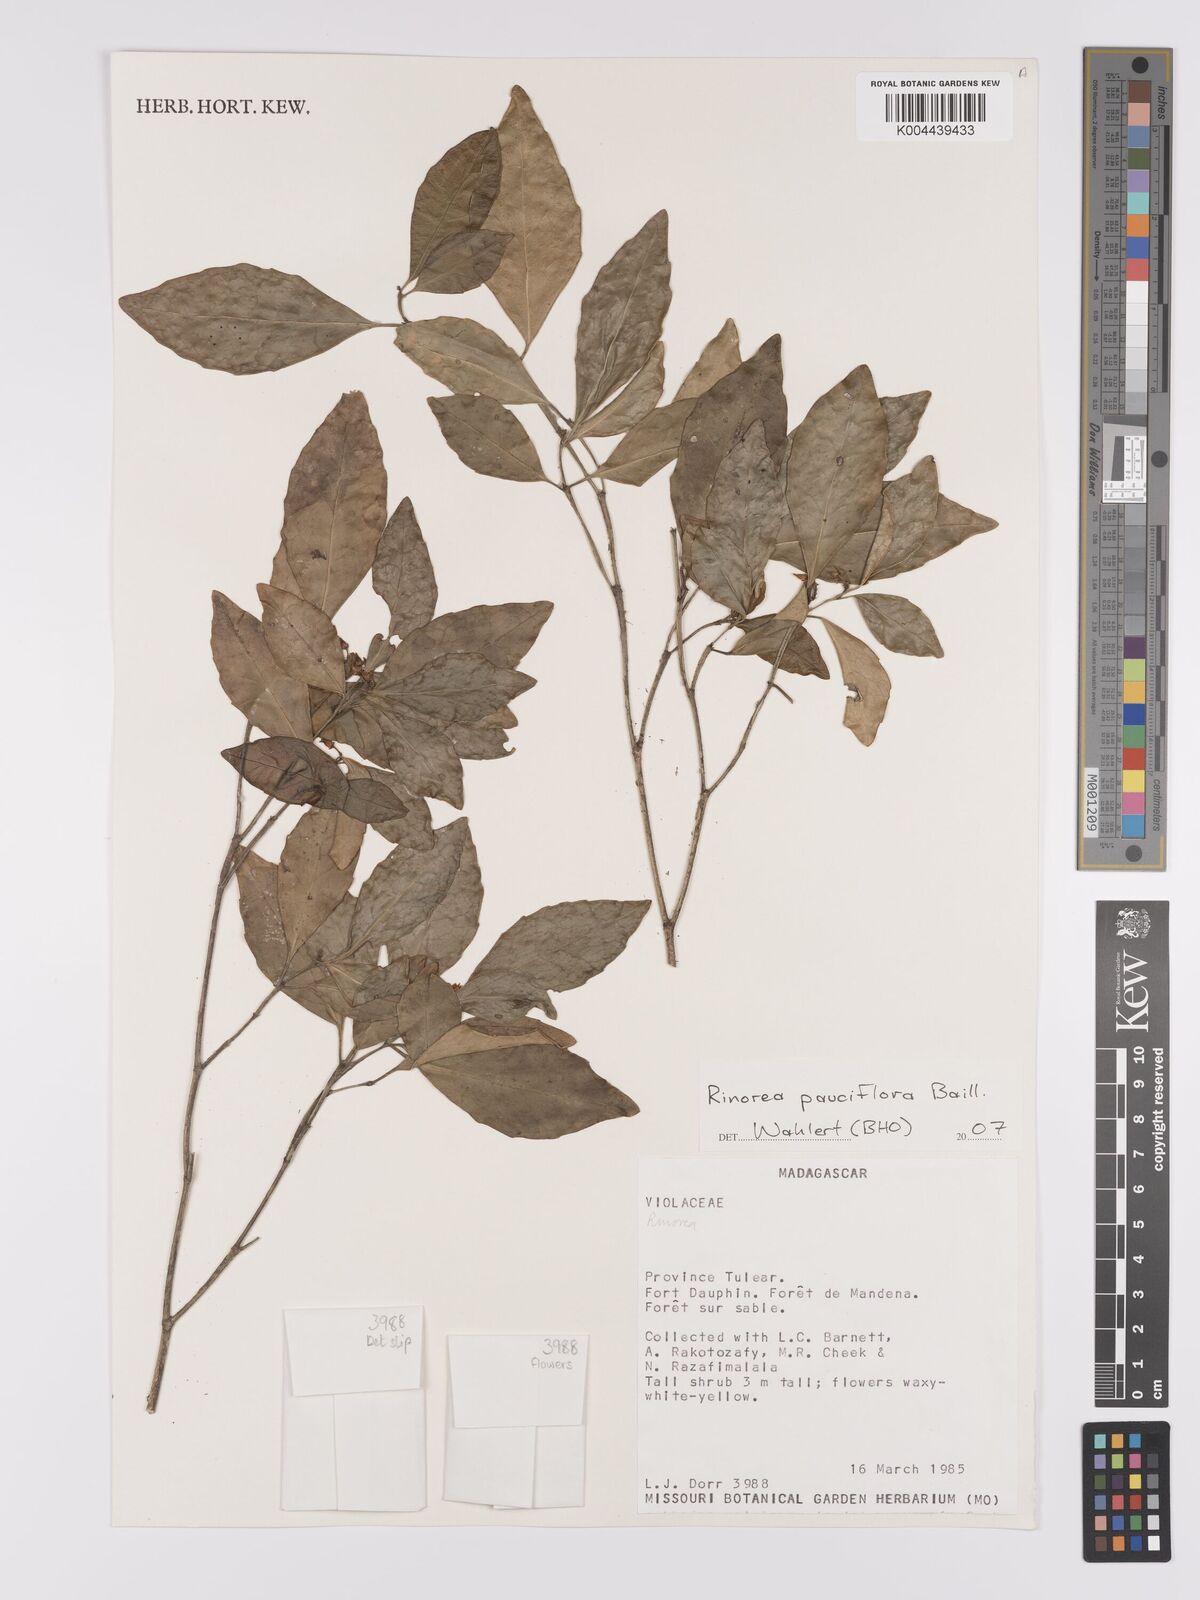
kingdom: Plantae
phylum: Tracheophyta
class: Magnoliopsida
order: Malpighiales
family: Violaceae
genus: Rinorea
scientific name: Rinorea pauciflora
